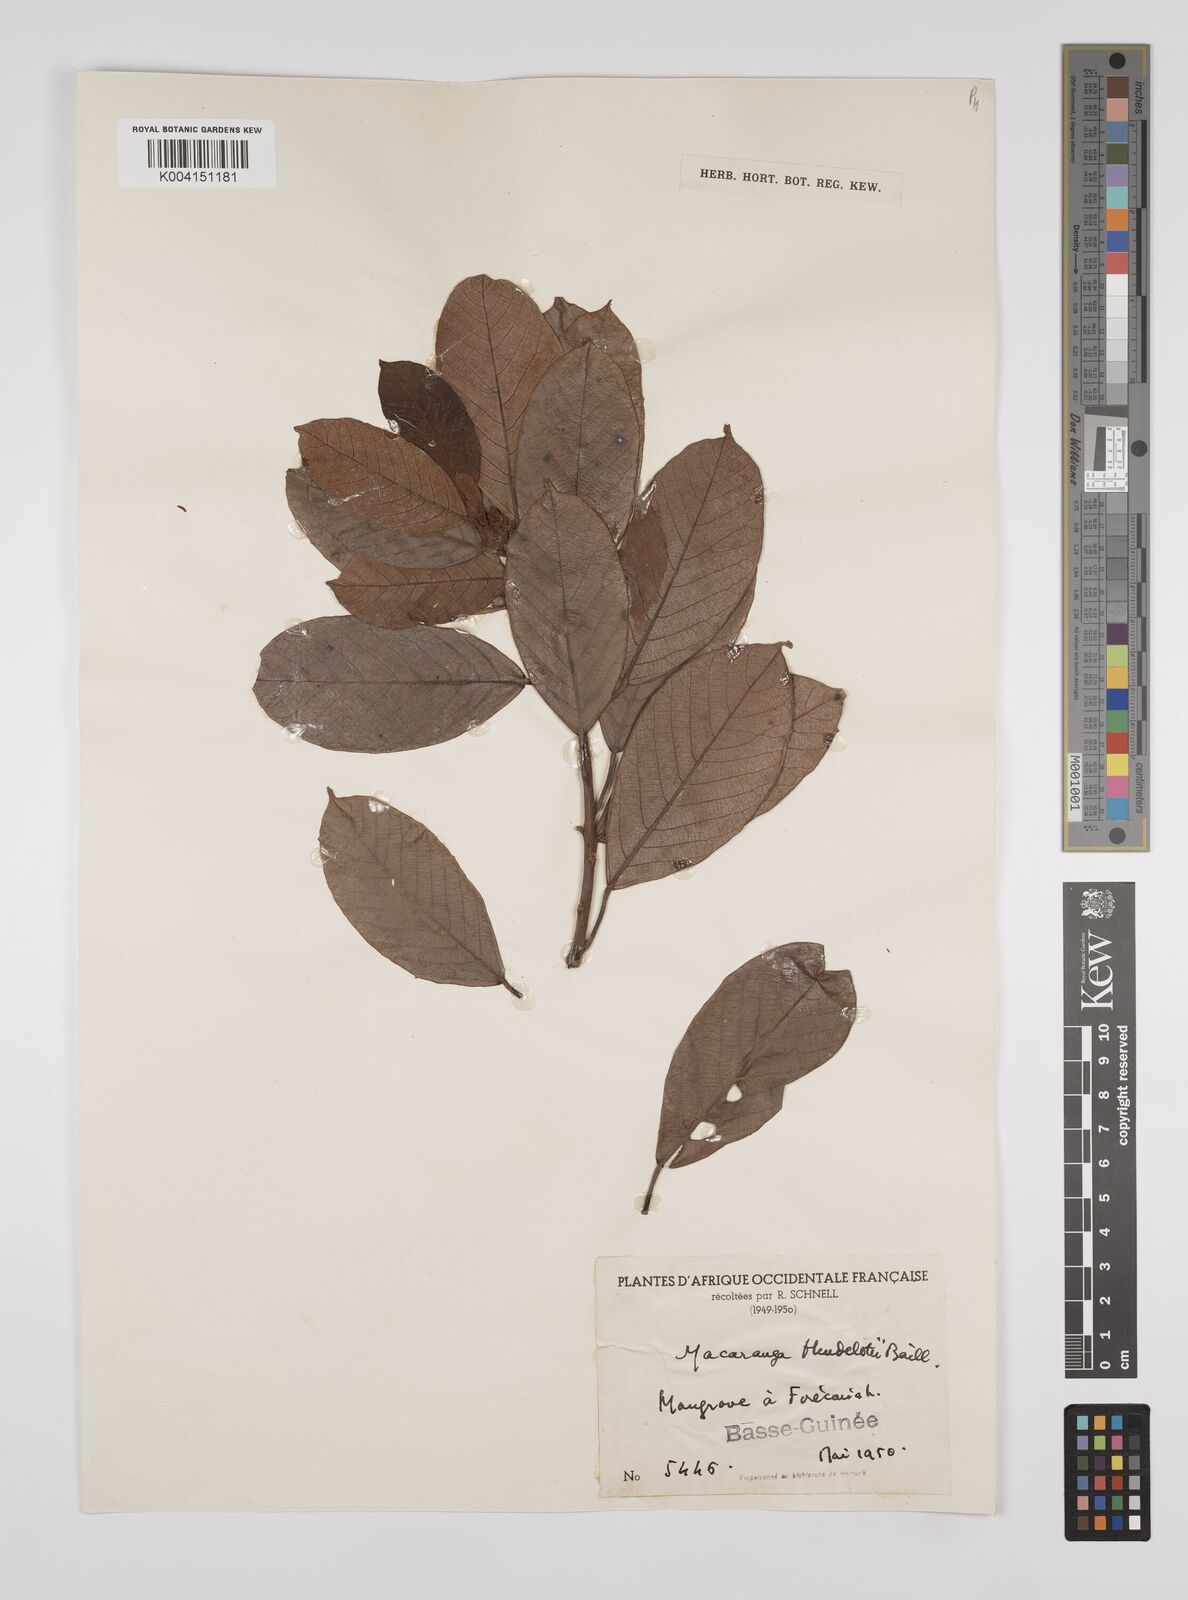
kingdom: Plantae
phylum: Tracheophyta
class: Magnoliopsida
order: Malpighiales
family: Euphorbiaceae
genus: Macaranga
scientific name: Macaranga heudelotii
